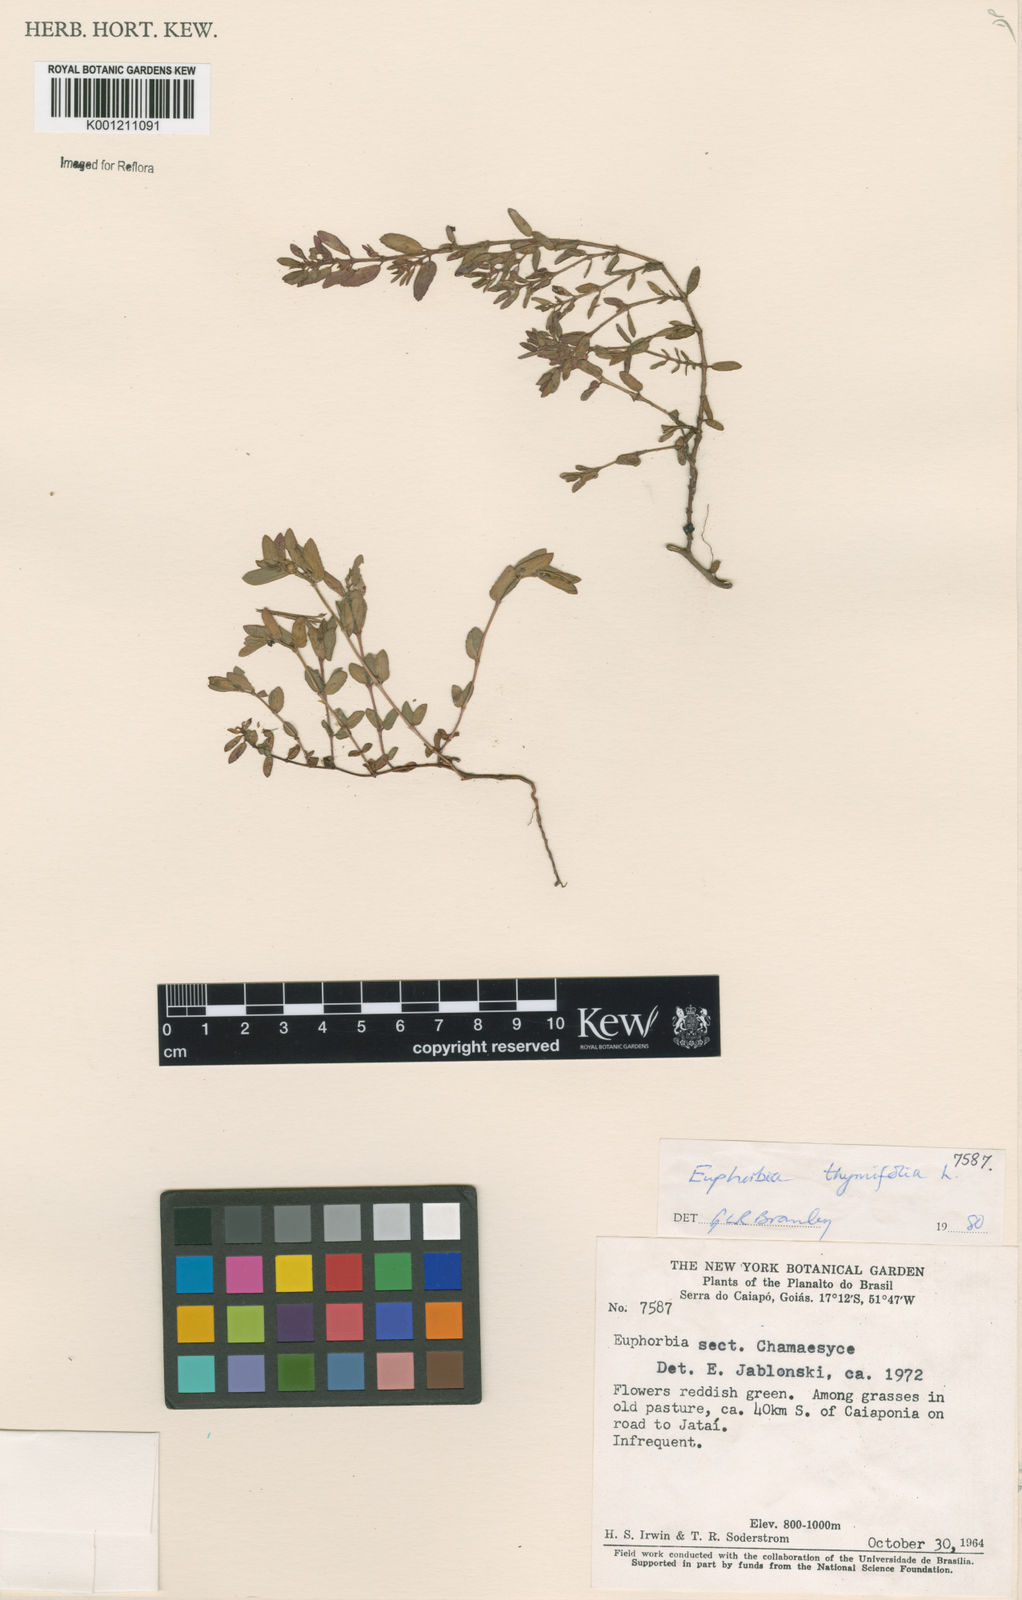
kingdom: Plantae
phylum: Tracheophyta
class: Magnoliopsida
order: Malpighiales
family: Euphorbiaceae
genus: Euphorbia
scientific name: Euphorbia thymifolia
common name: Gulf sandmat
